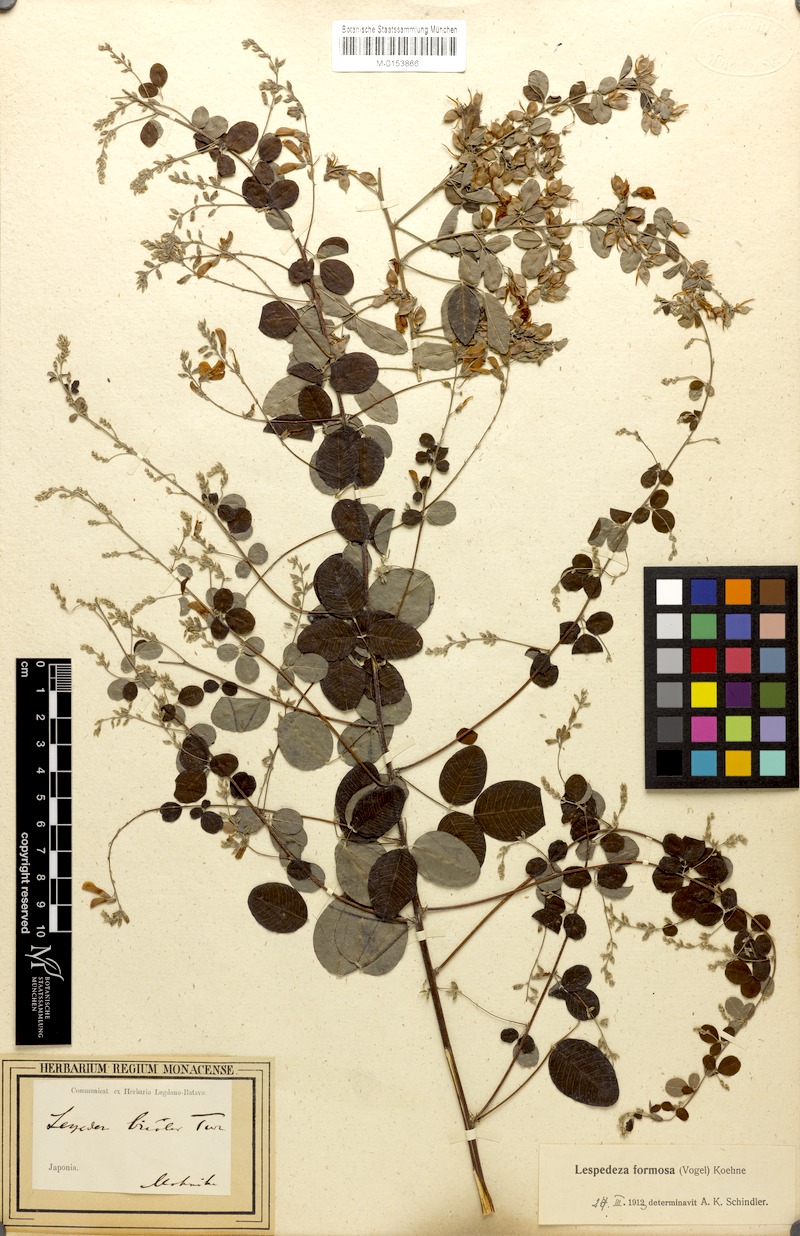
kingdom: Plantae
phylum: Tracheophyta
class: Magnoliopsida
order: Fabales
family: Fabaceae
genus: Lespedeza
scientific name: Lespedeza thunbergii
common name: Thunberg's lespedeza
